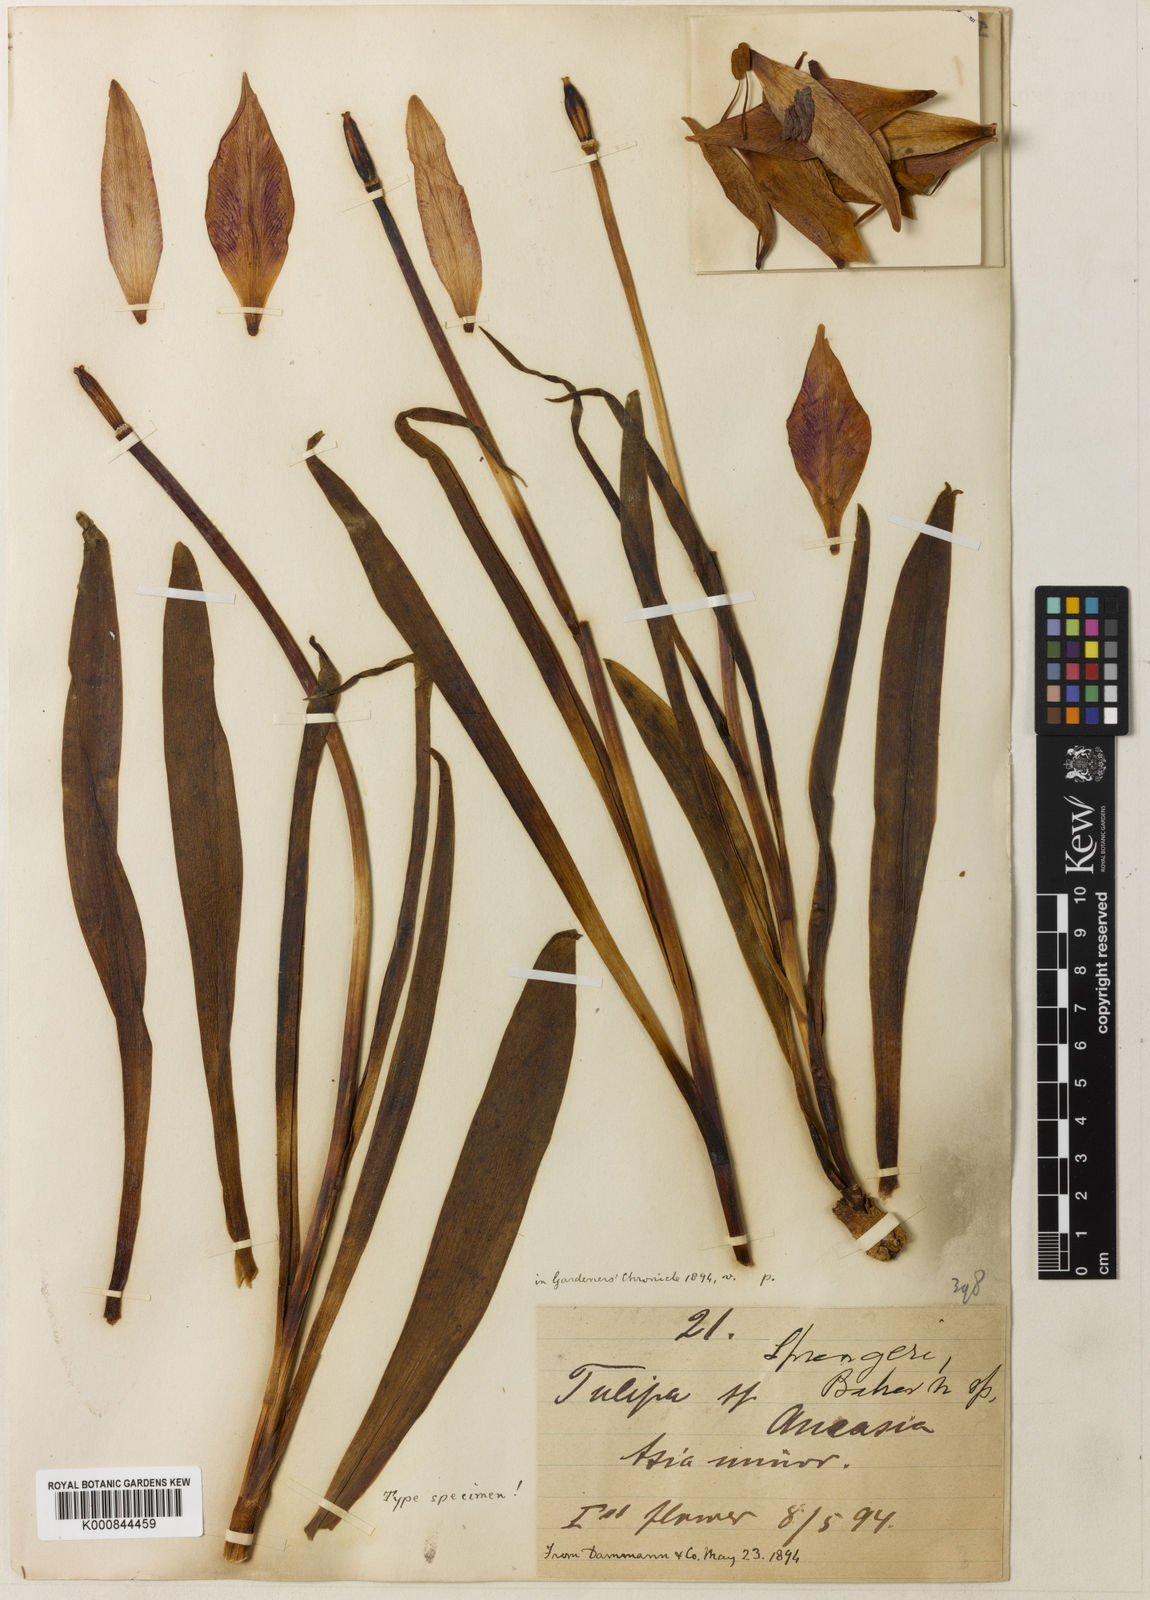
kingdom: Plantae
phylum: Tracheophyta
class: Liliopsida
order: Liliales
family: Liliaceae
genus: Tulipa
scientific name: Tulipa sprengeri
